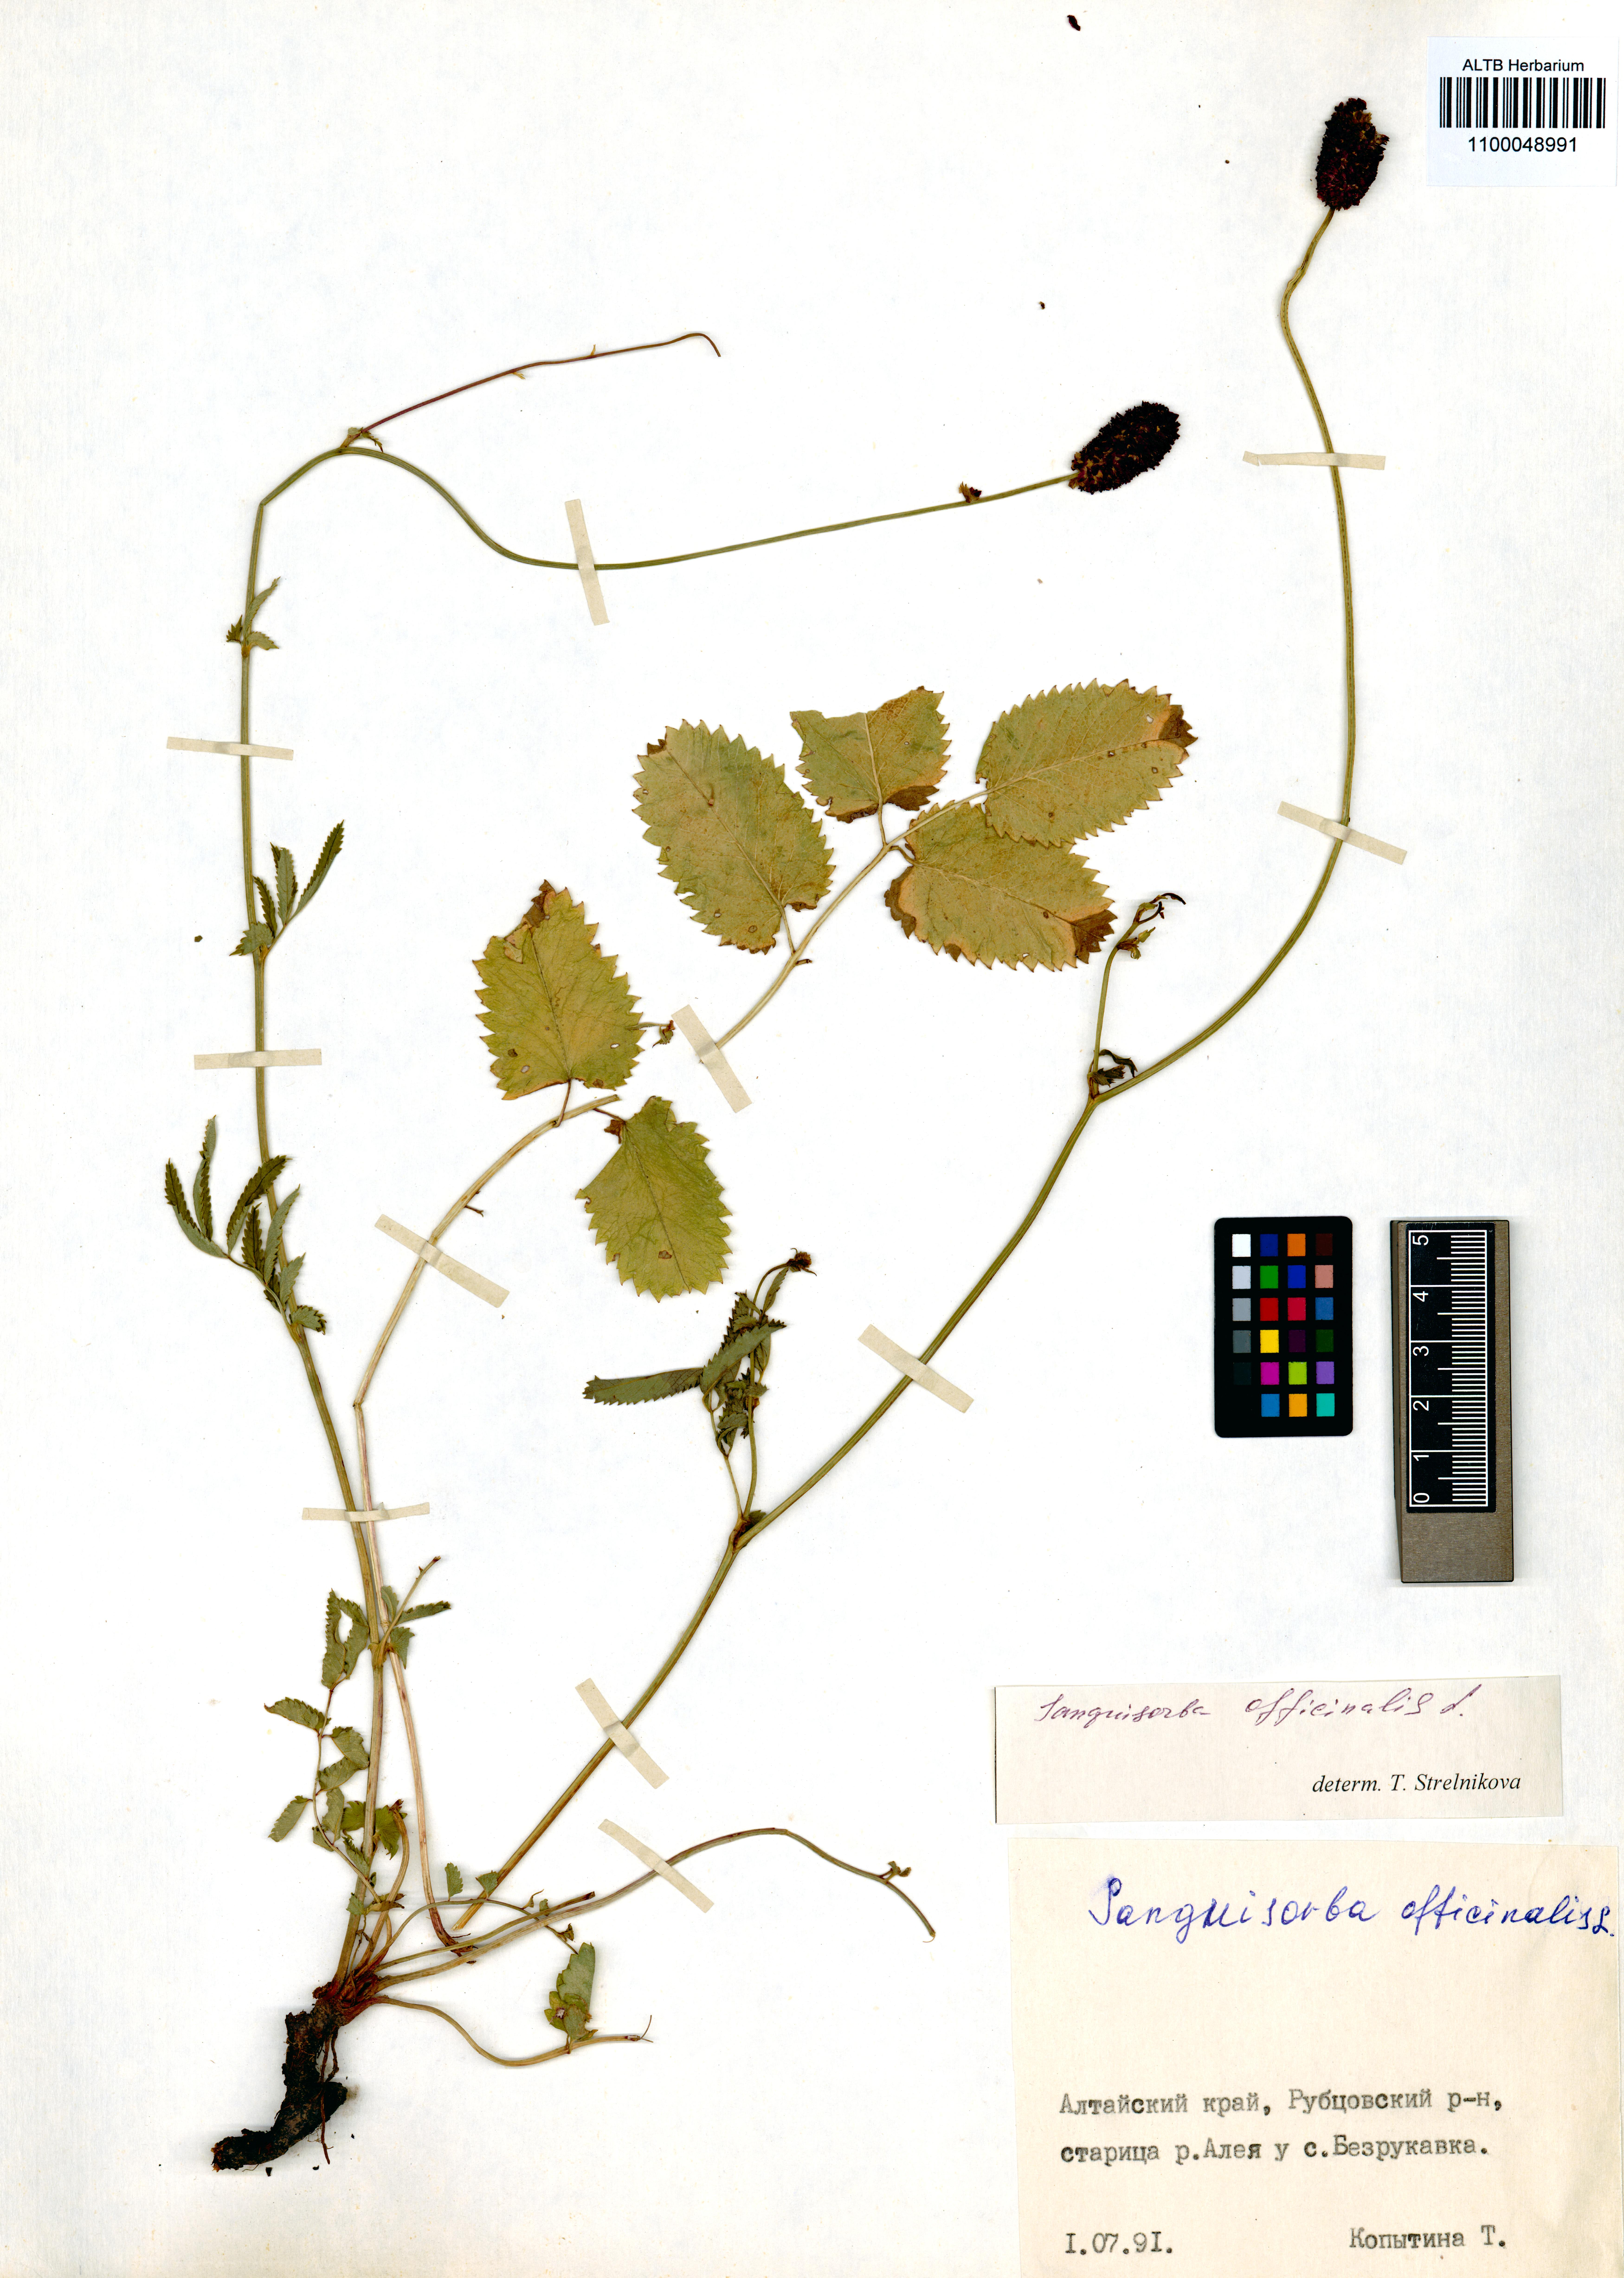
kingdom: Plantae
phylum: Tracheophyta
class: Magnoliopsida
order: Rosales
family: Rosaceae
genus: Sanguisorba
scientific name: Sanguisorba officinalis
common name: Great burnet
